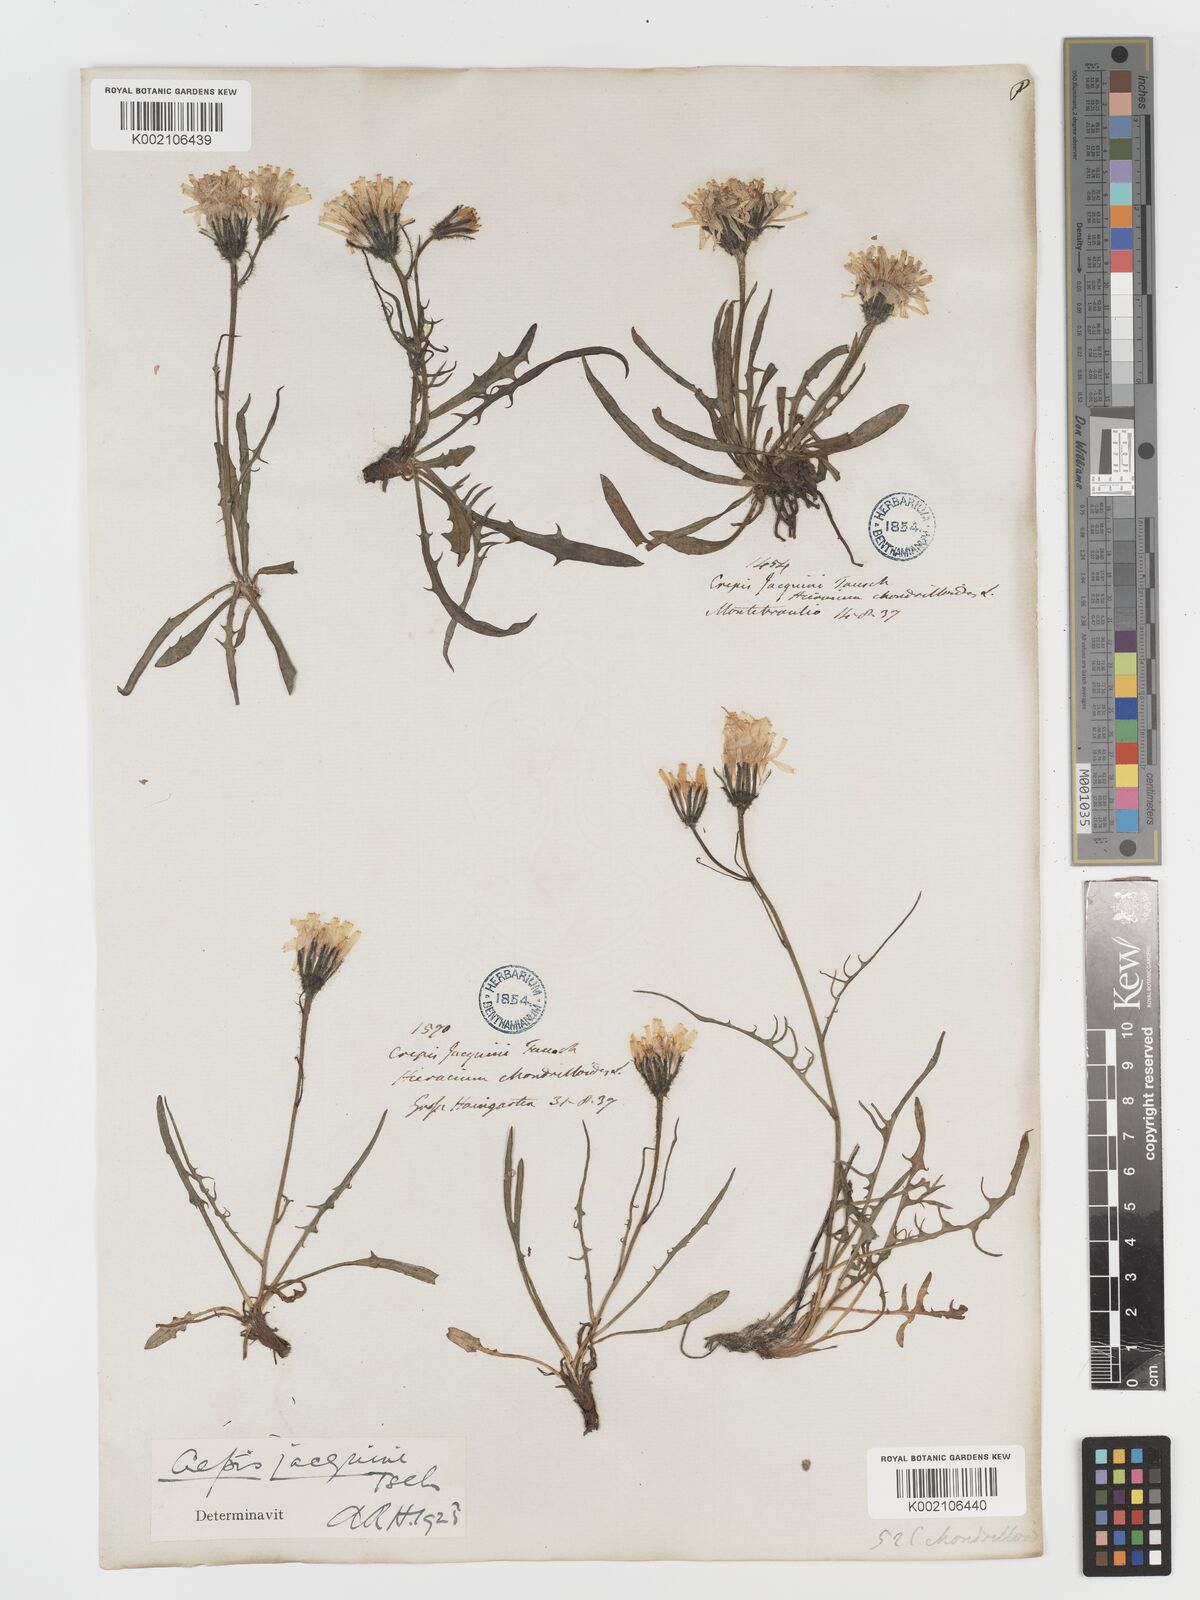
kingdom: Plantae
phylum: Tracheophyta
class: Magnoliopsida
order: Asterales
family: Asteraceae
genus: Crepis
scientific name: Crepis jacquinii
